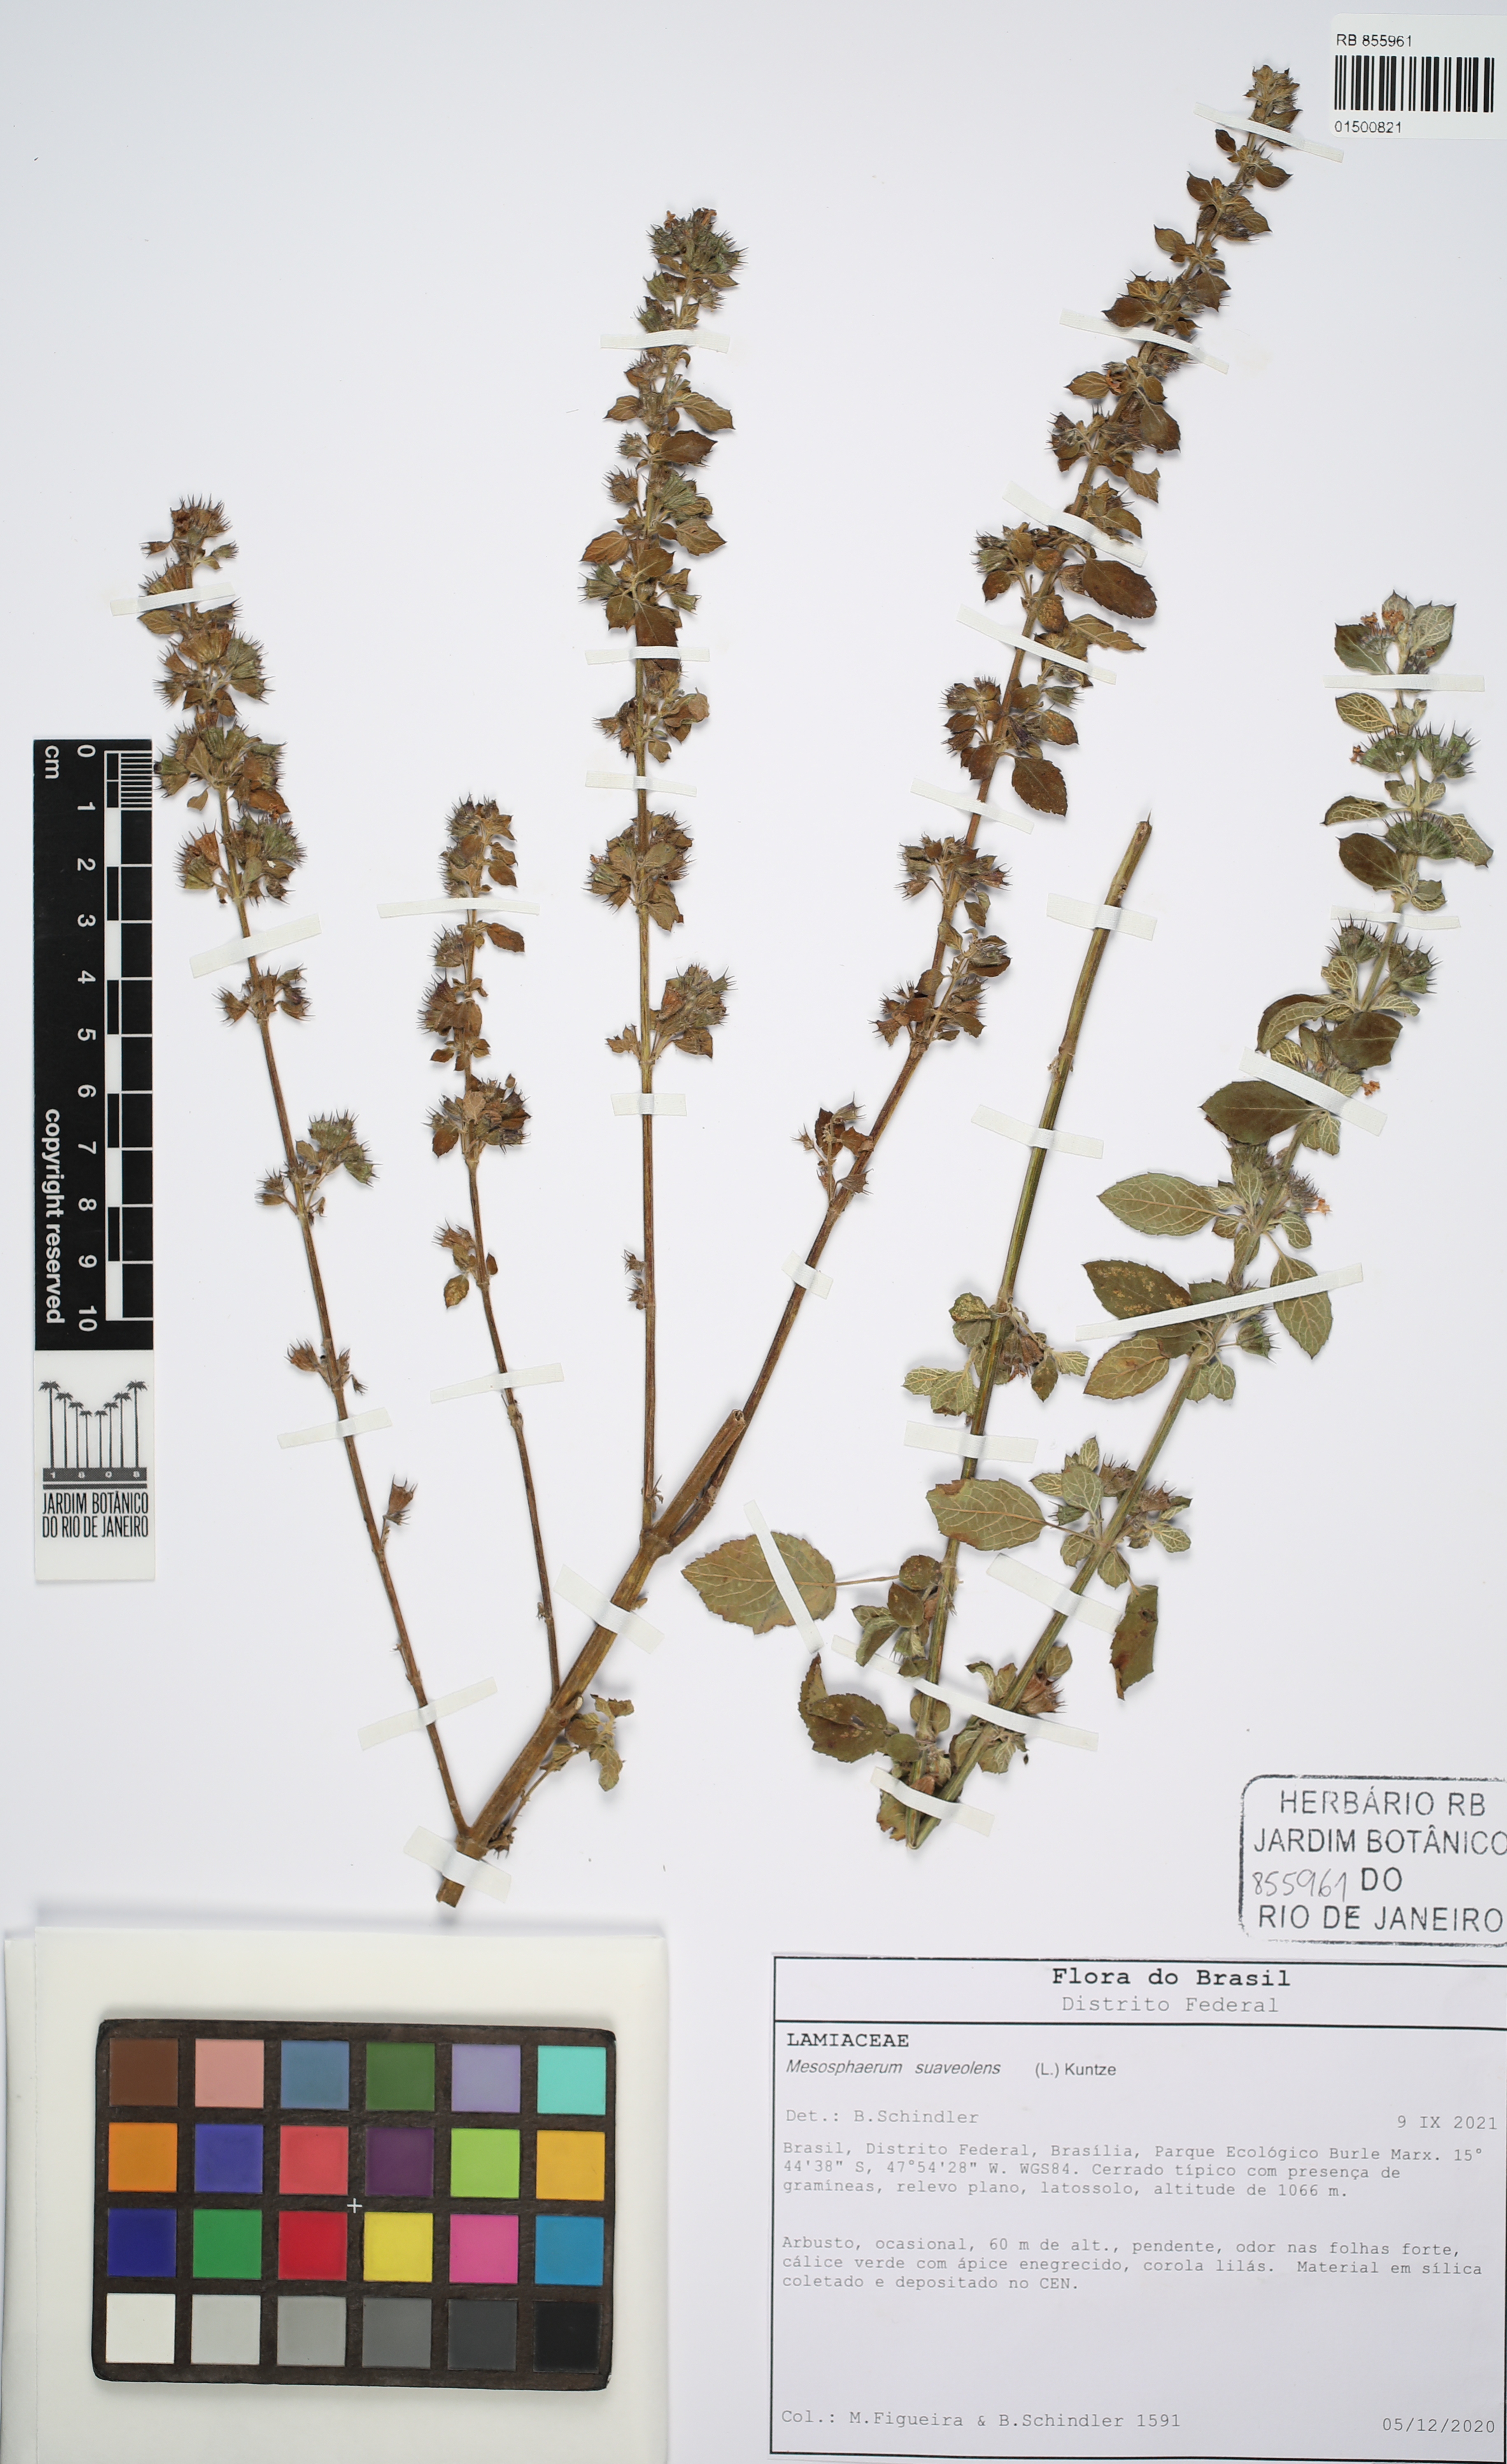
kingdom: Plantae
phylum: Tracheophyta
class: Magnoliopsida
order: Lamiales
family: Lamiaceae
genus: Mesosphaerum
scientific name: Mesosphaerum suaveolens
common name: Pignut
